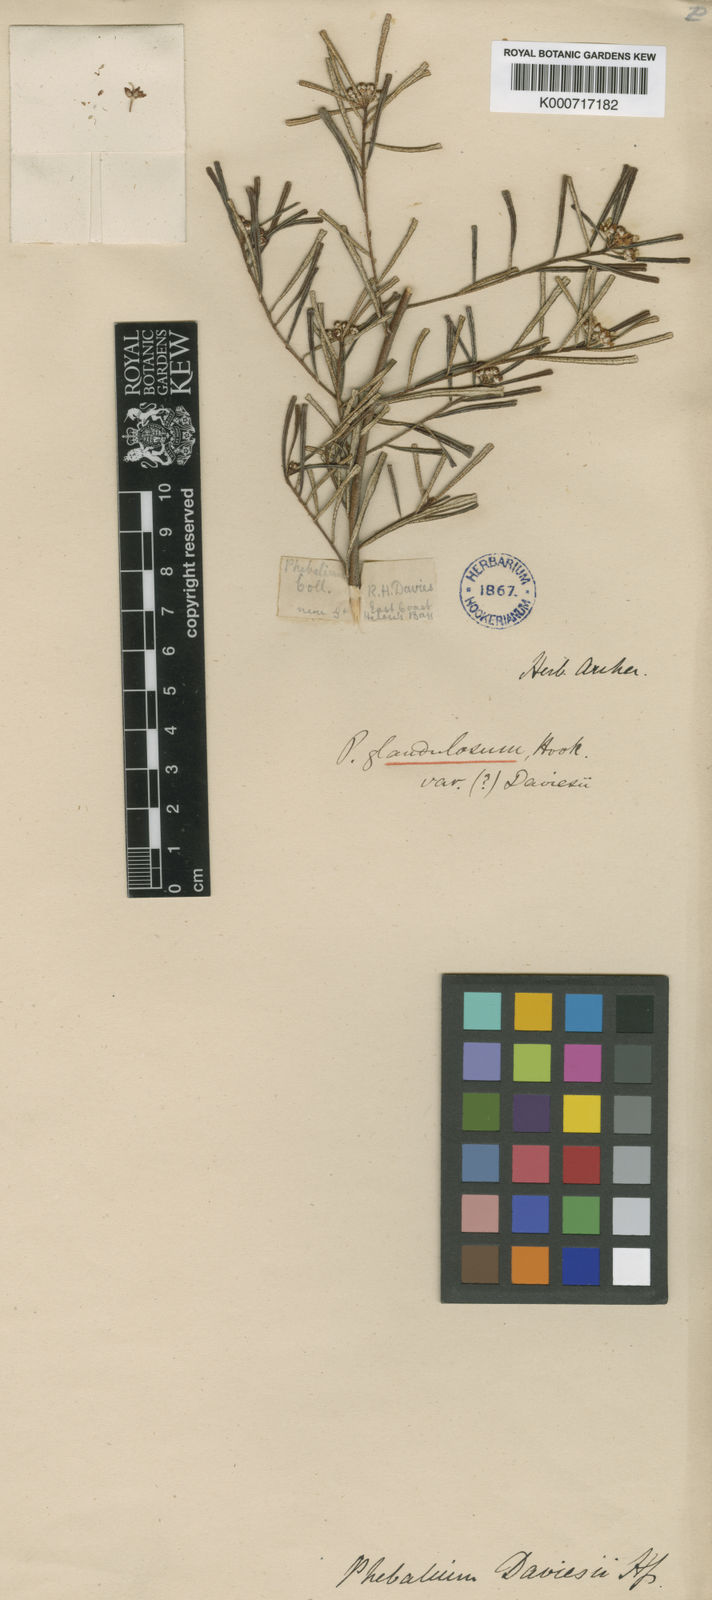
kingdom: Plantae
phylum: Tracheophyta
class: Magnoliopsida
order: Sapindales
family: Rutaceae
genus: Phebalium
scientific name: Phebalium glandulosum
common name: Desert phebalium
